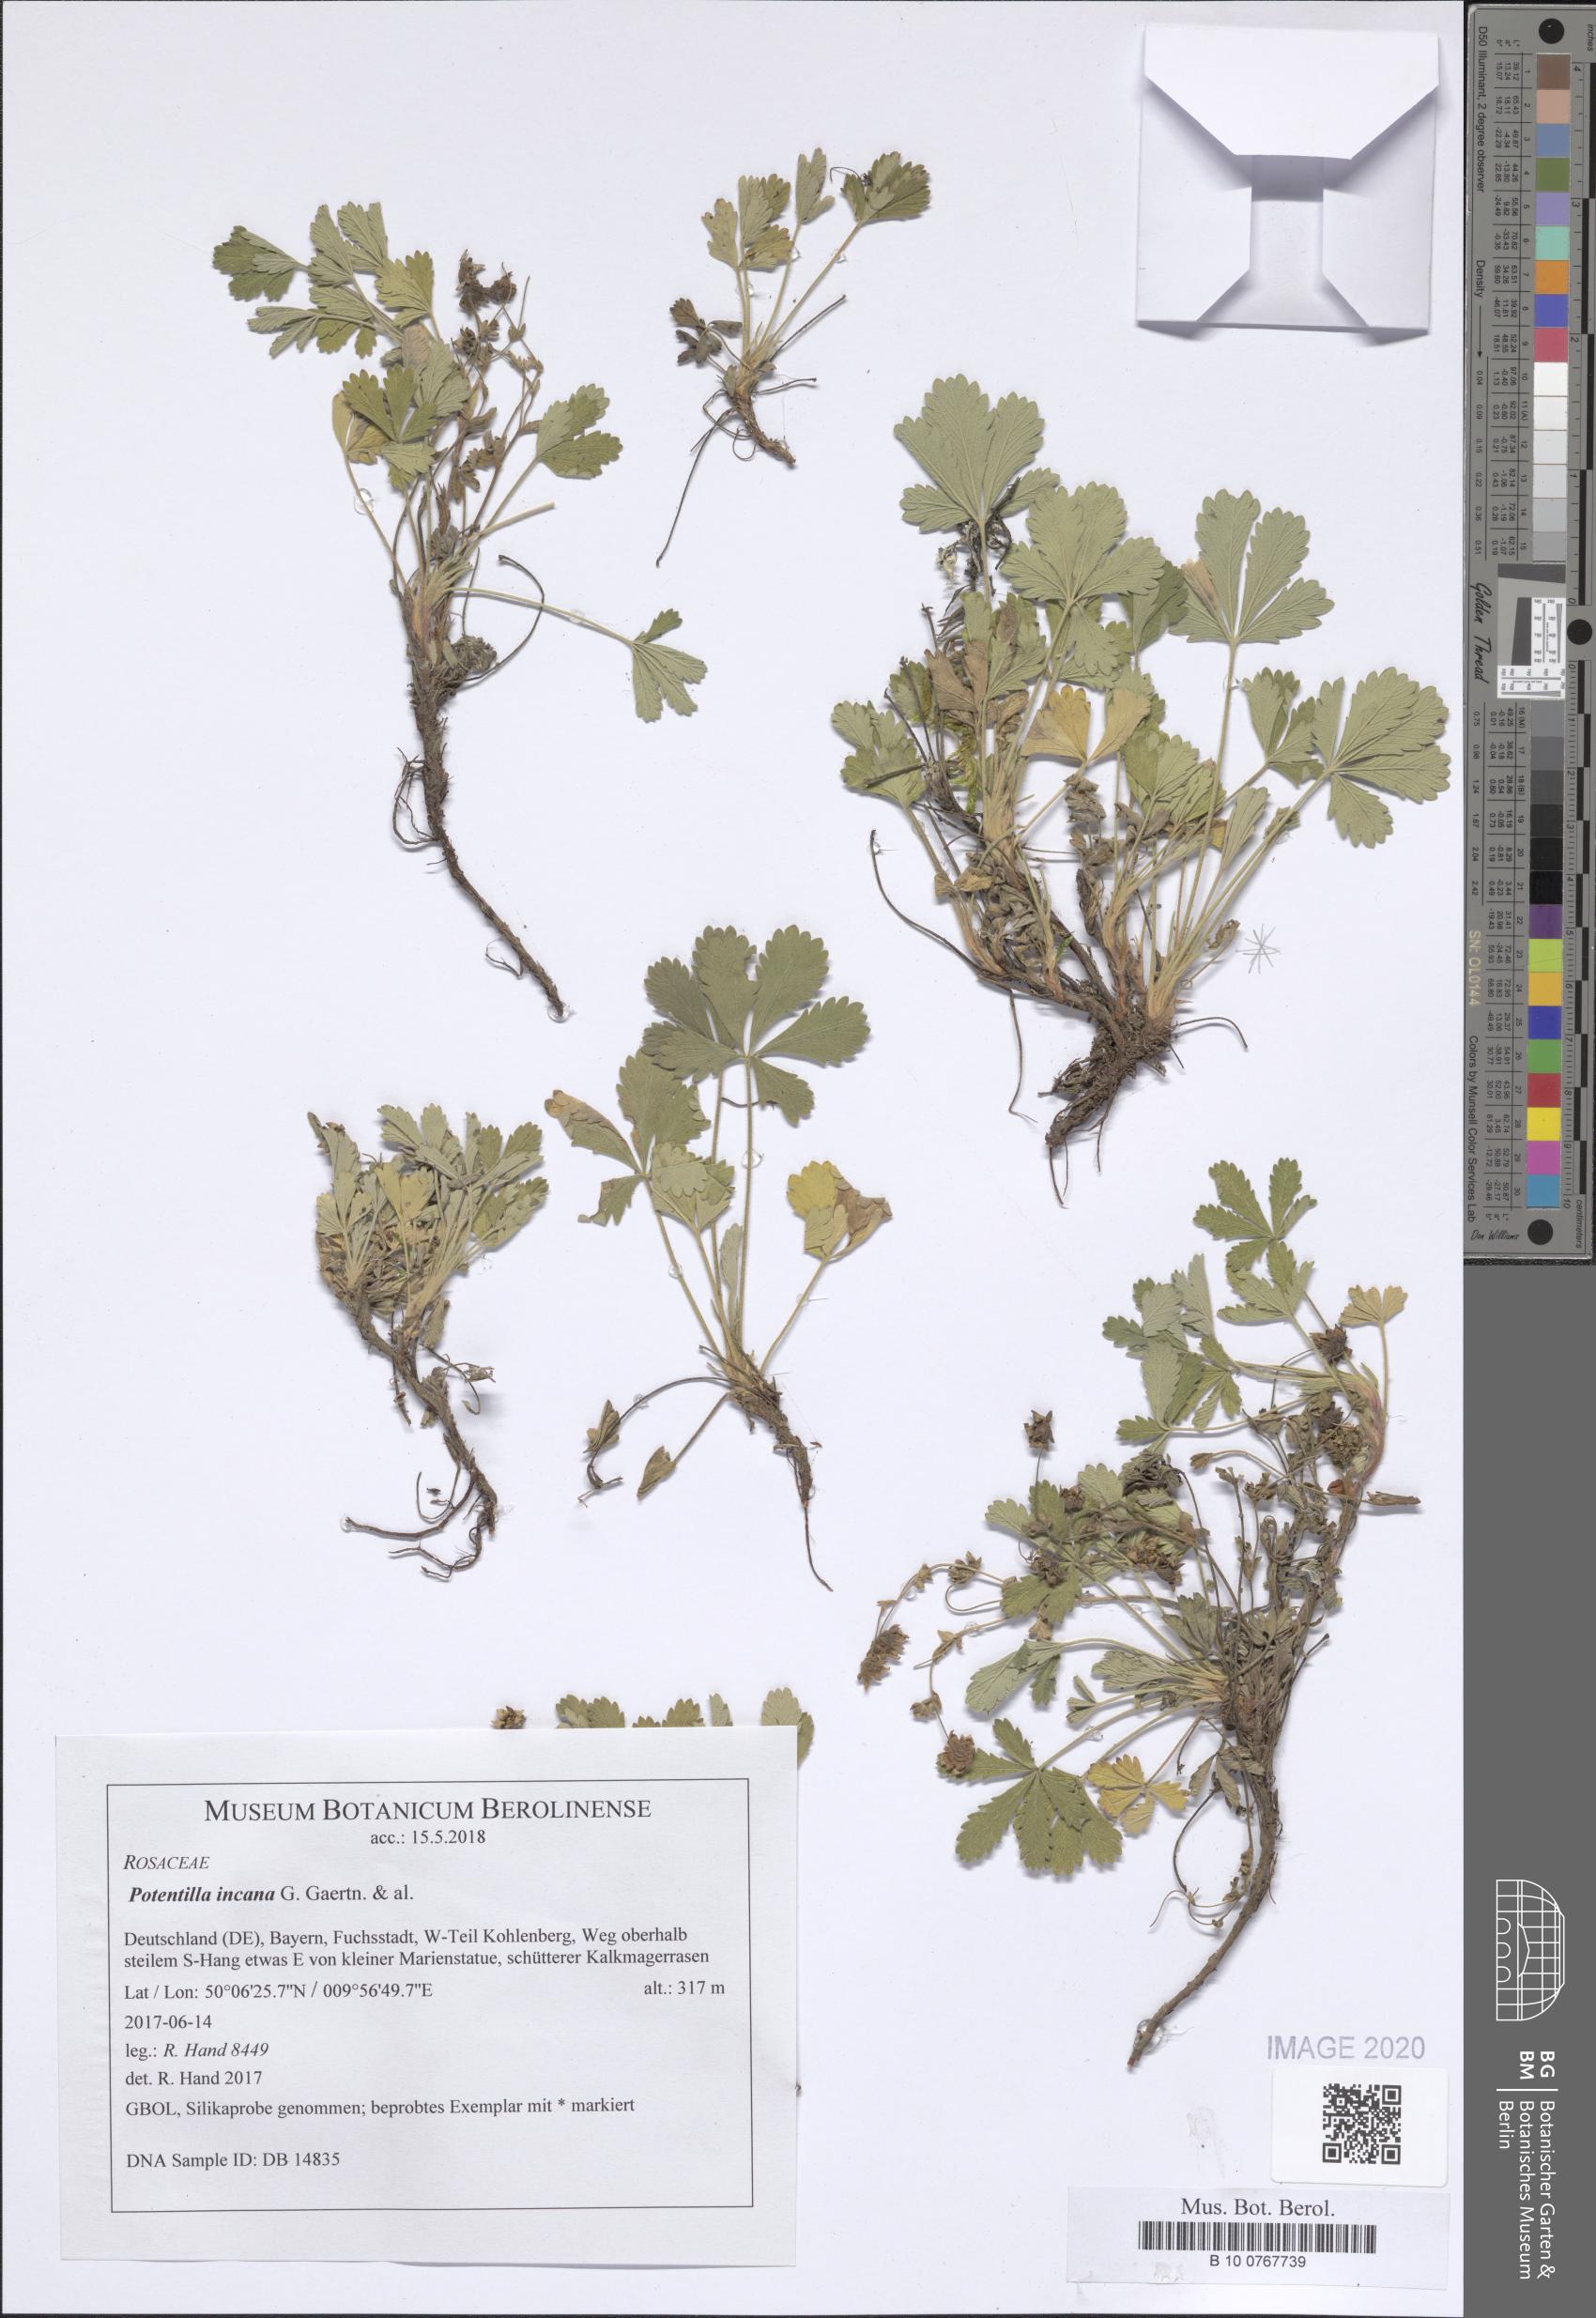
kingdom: Plantae
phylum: Tracheophyta
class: Magnoliopsida
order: Rosales
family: Rosaceae
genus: Potentilla
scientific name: Potentilla cinerea
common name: Ashy cinquefoil
